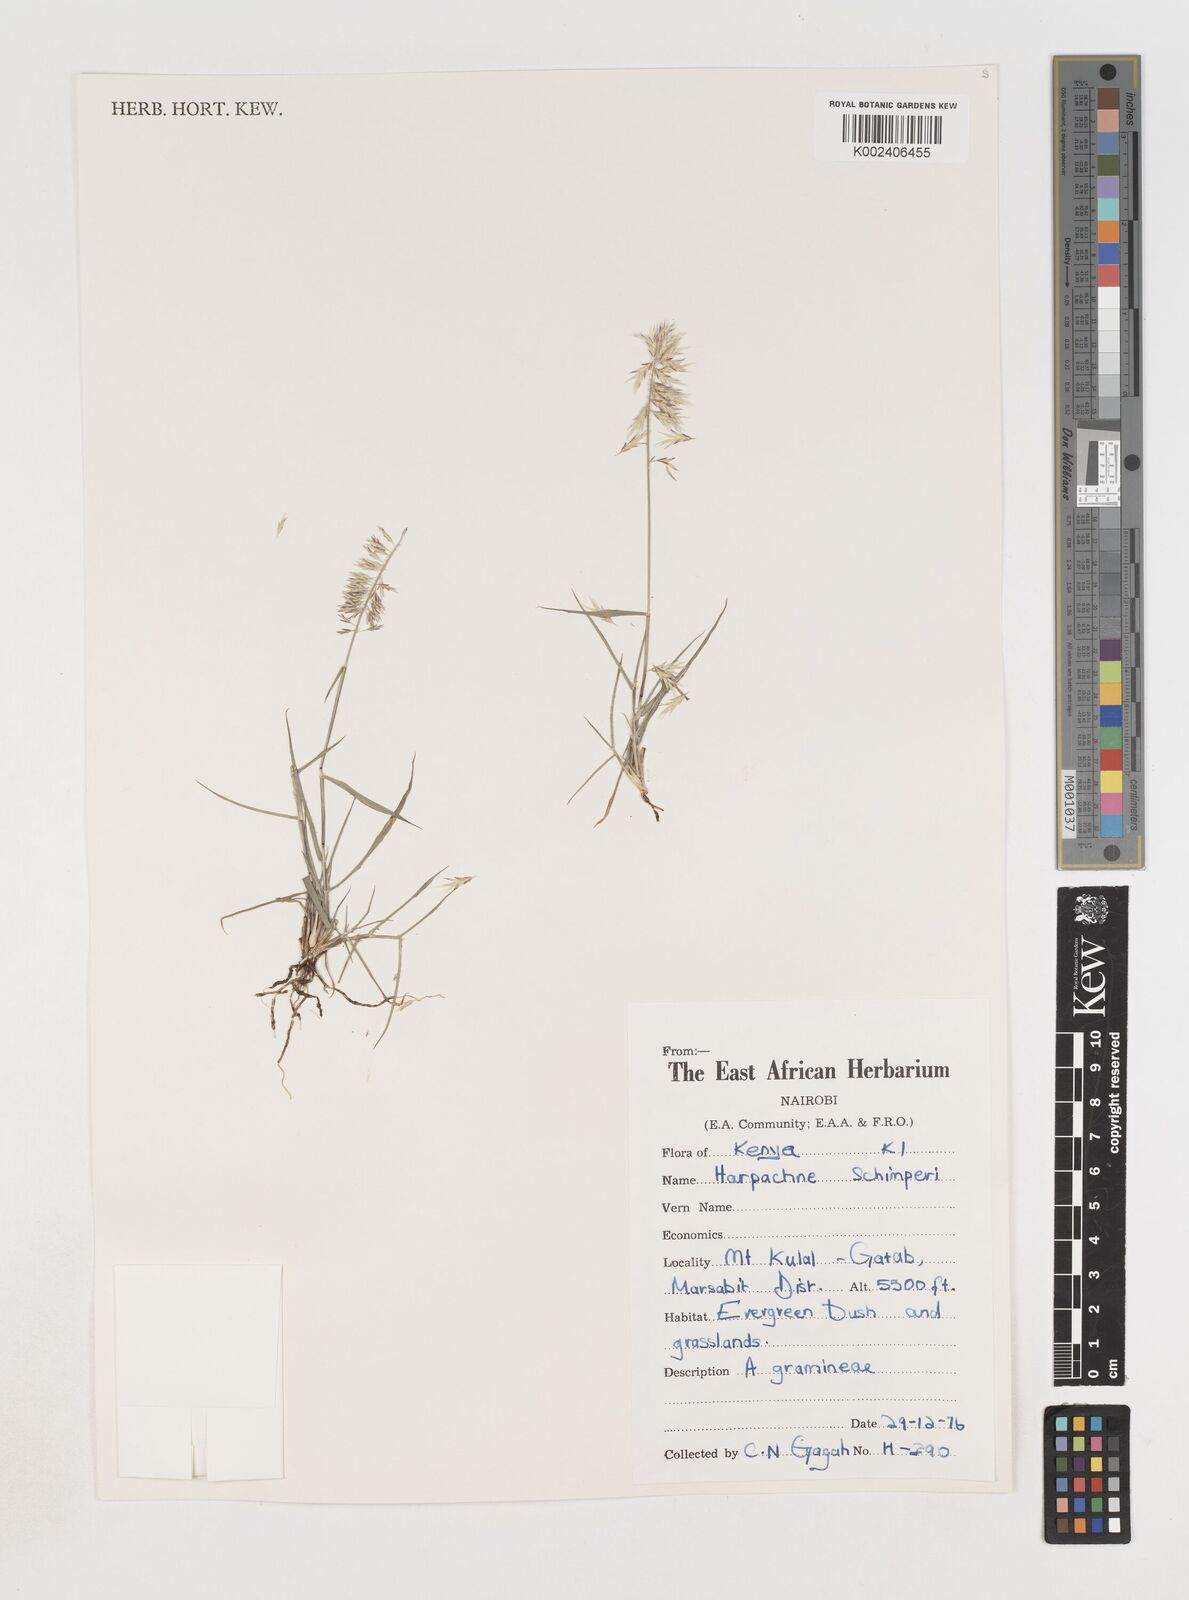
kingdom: Plantae
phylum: Tracheophyta
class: Liliopsida
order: Poales
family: Poaceae
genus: Harpachne
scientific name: Harpachne schimperi
